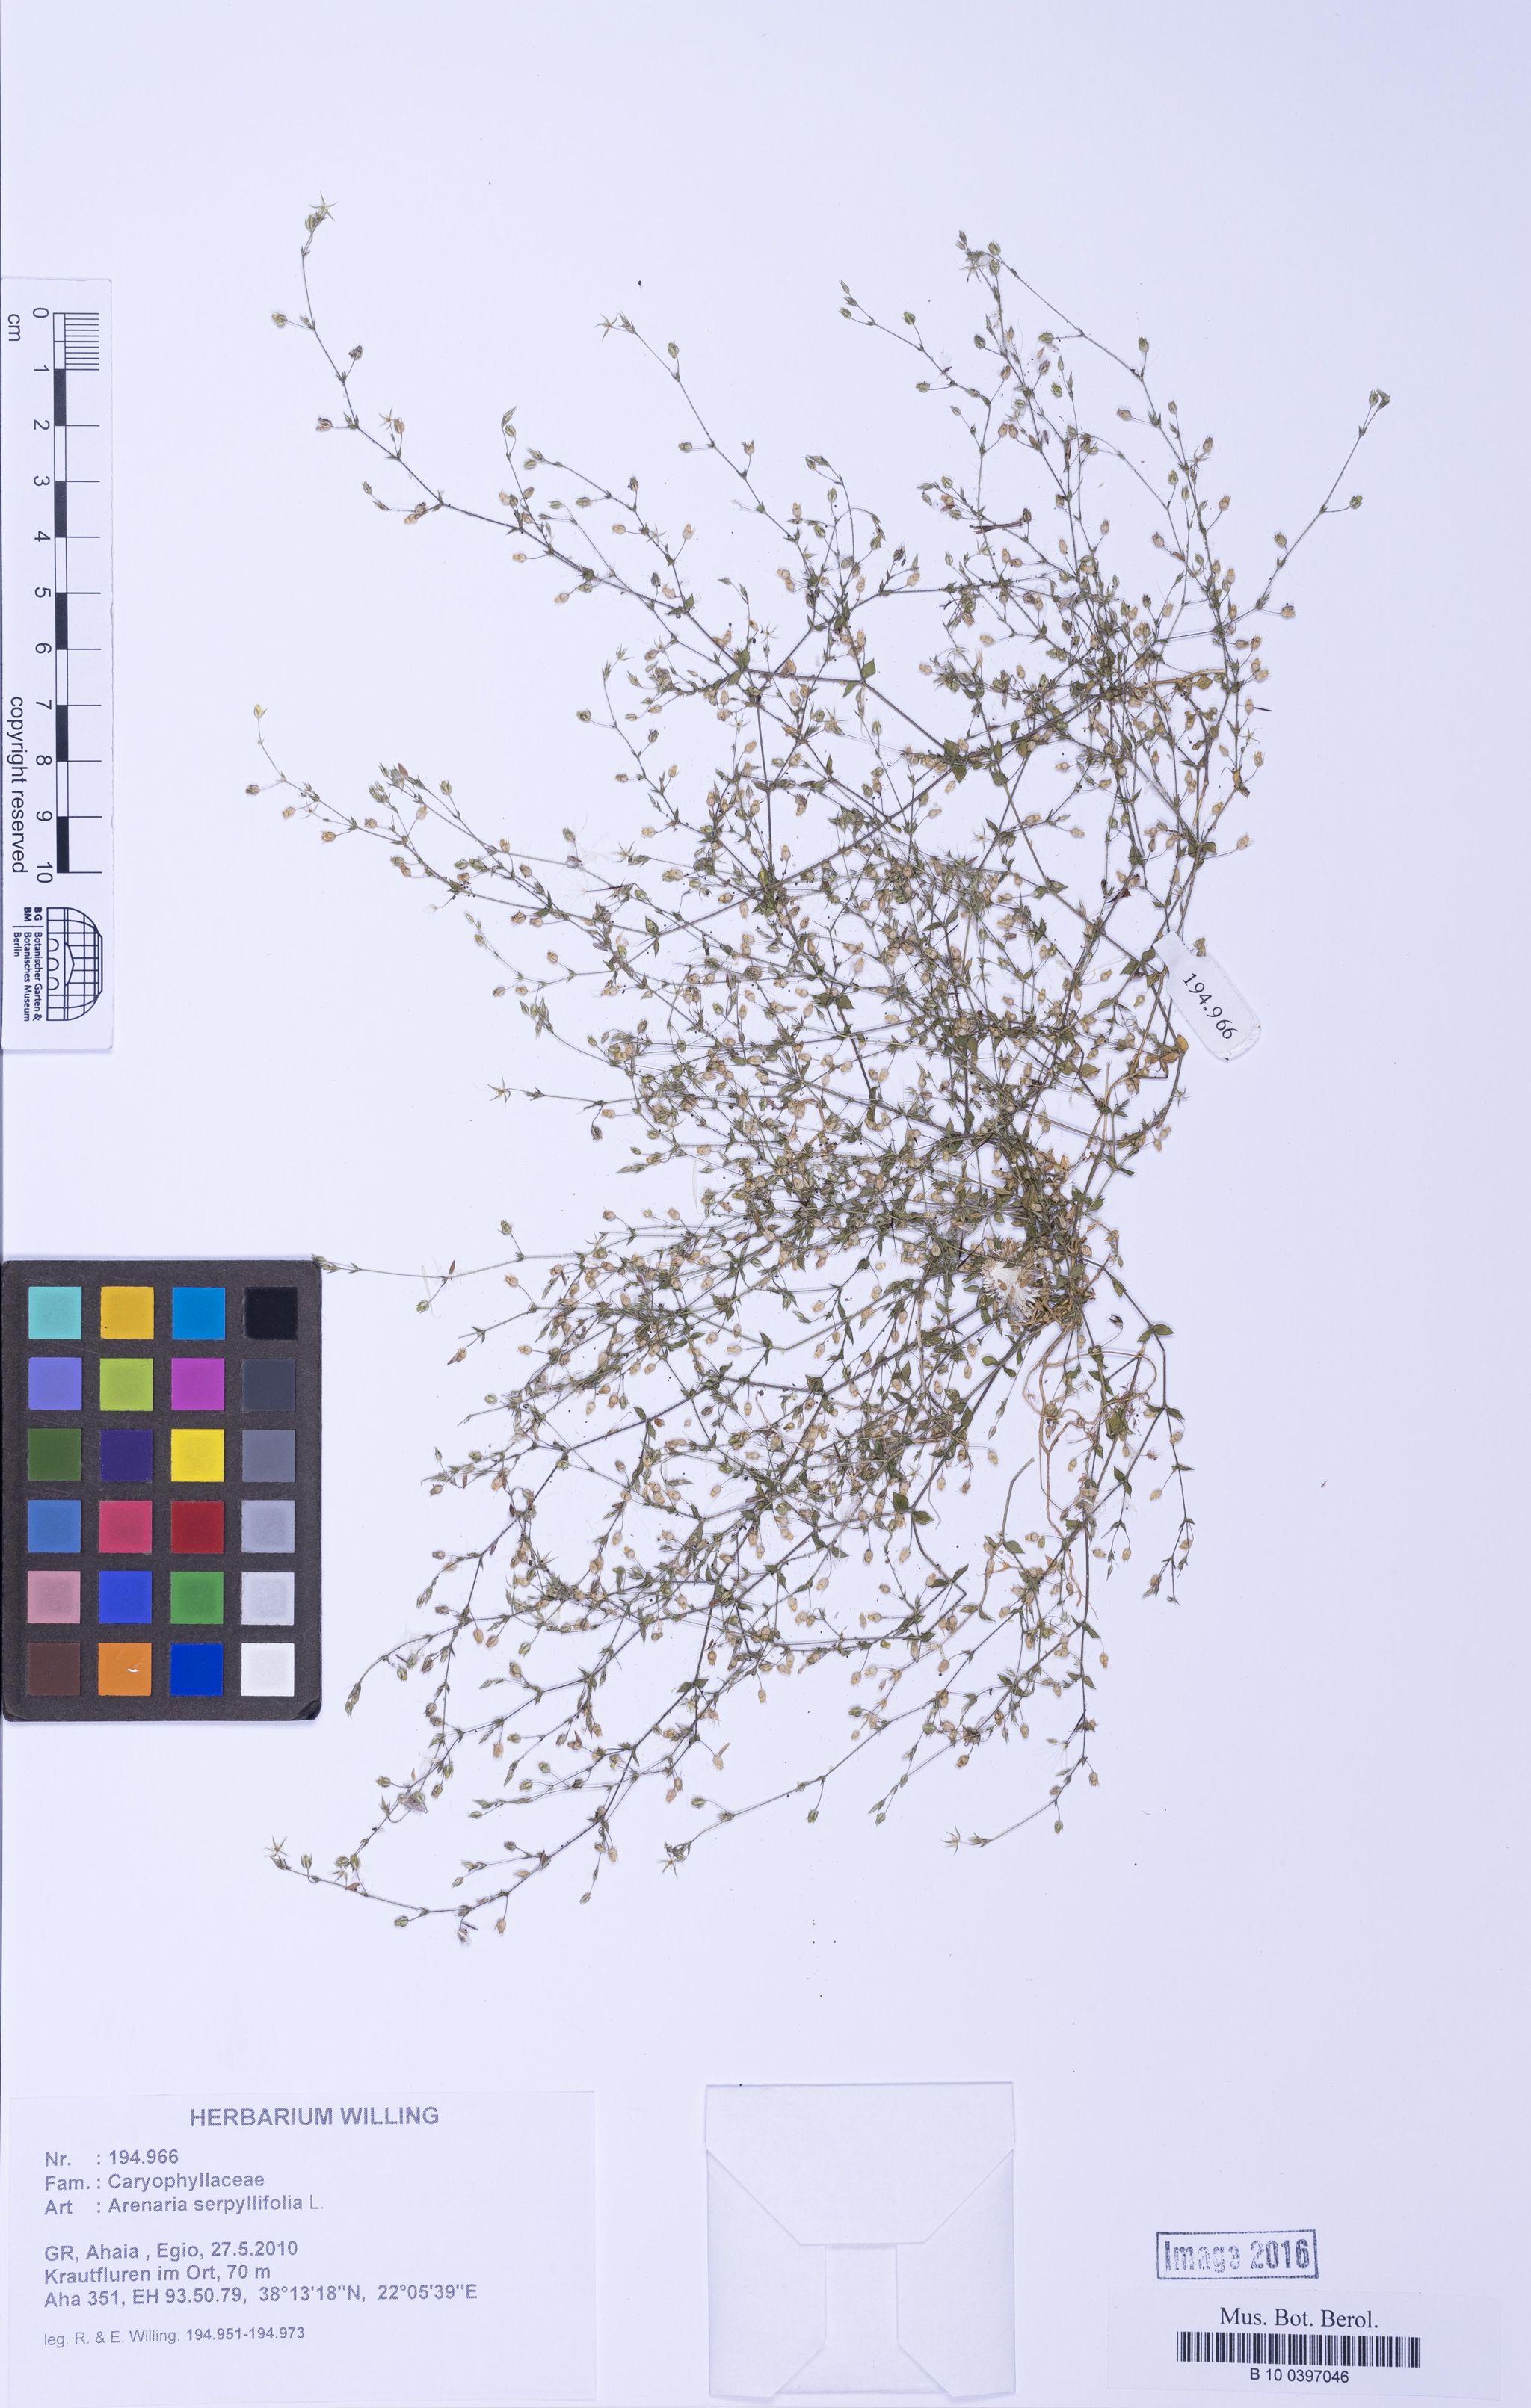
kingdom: Plantae
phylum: Tracheophyta
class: Magnoliopsida
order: Caryophyllales
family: Caryophyllaceae
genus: Arenaria
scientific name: Arenaria serpyllifolia
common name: Thyme-leaved sandwort
